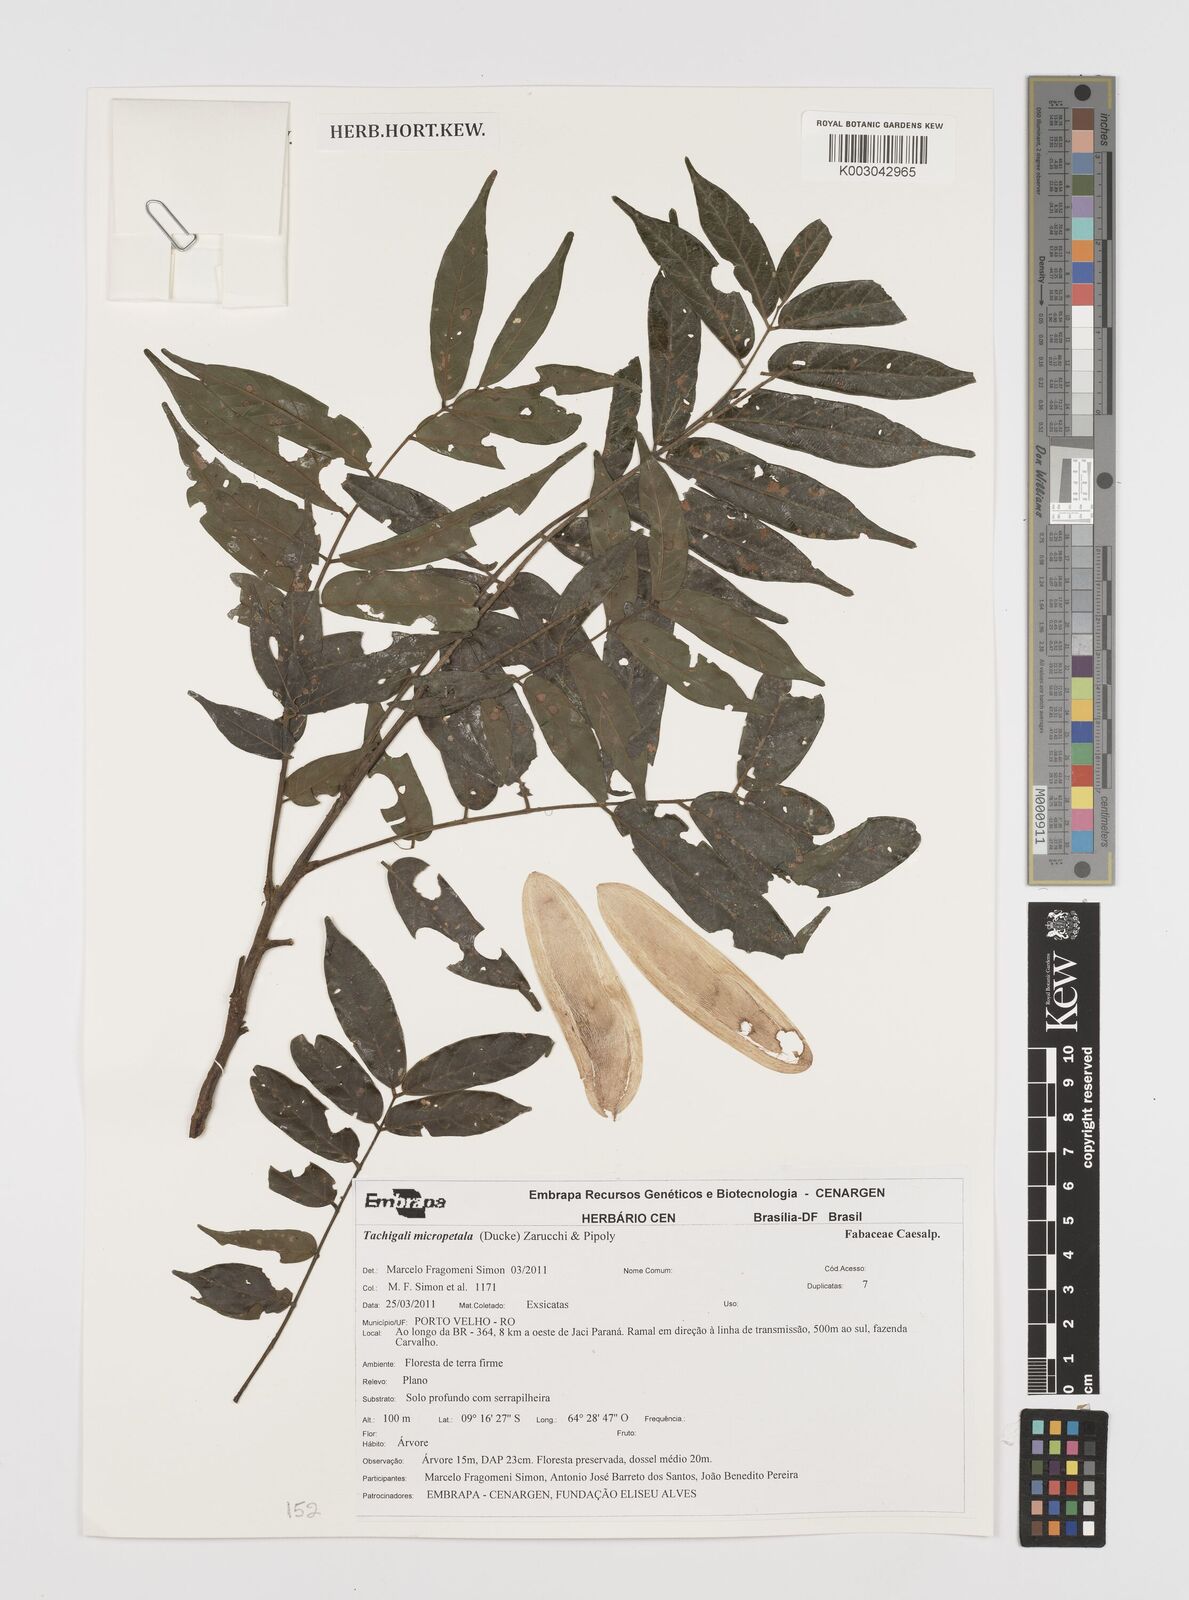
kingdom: Plantae
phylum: Tracheophyta
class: Magnoliopsida
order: Fabales
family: Fabaceae
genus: Tachigali
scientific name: Tachigali micropetala
